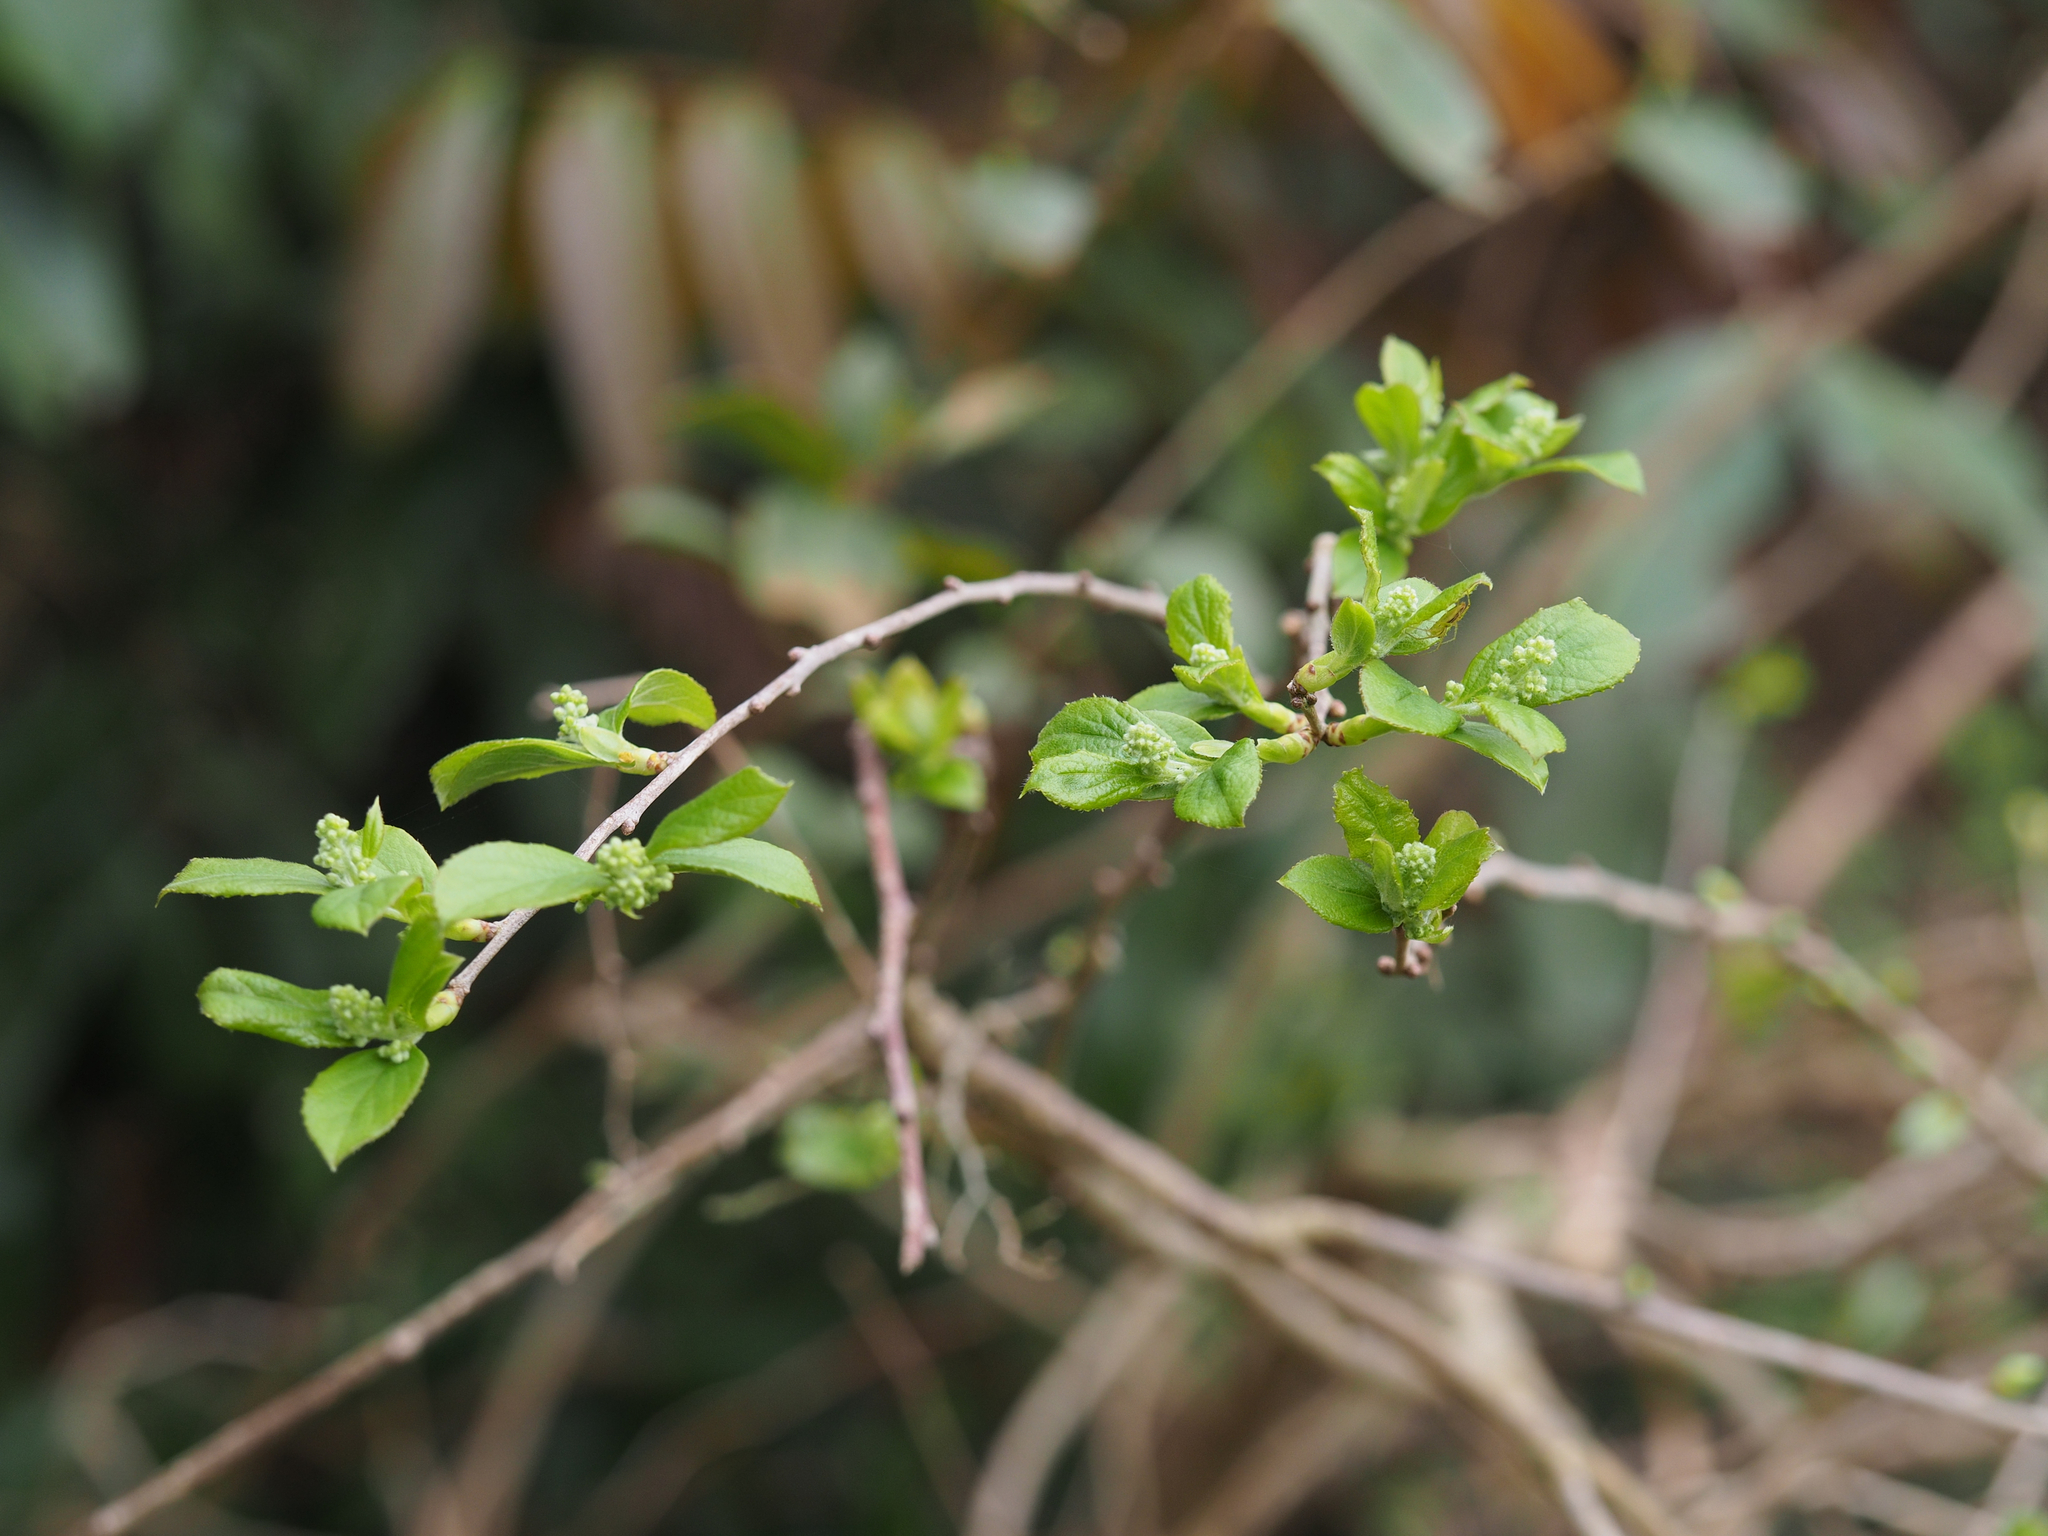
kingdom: Plantae
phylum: Tracheophyta
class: Magnoliopsida
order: Ericales
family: Symplocaceae
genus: Symplocos
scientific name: Symplocos paniculata
